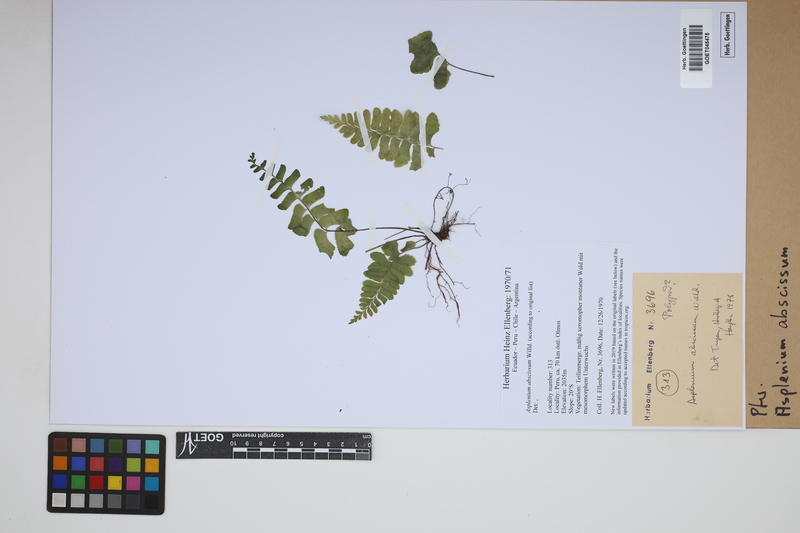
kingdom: Plantae
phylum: Tracheophyta
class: Polypodiopsida
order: Polypodiales
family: Aspleniaceae
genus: Asplenium
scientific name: Asplenium abscissum
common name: Cutleaf spleenwort
